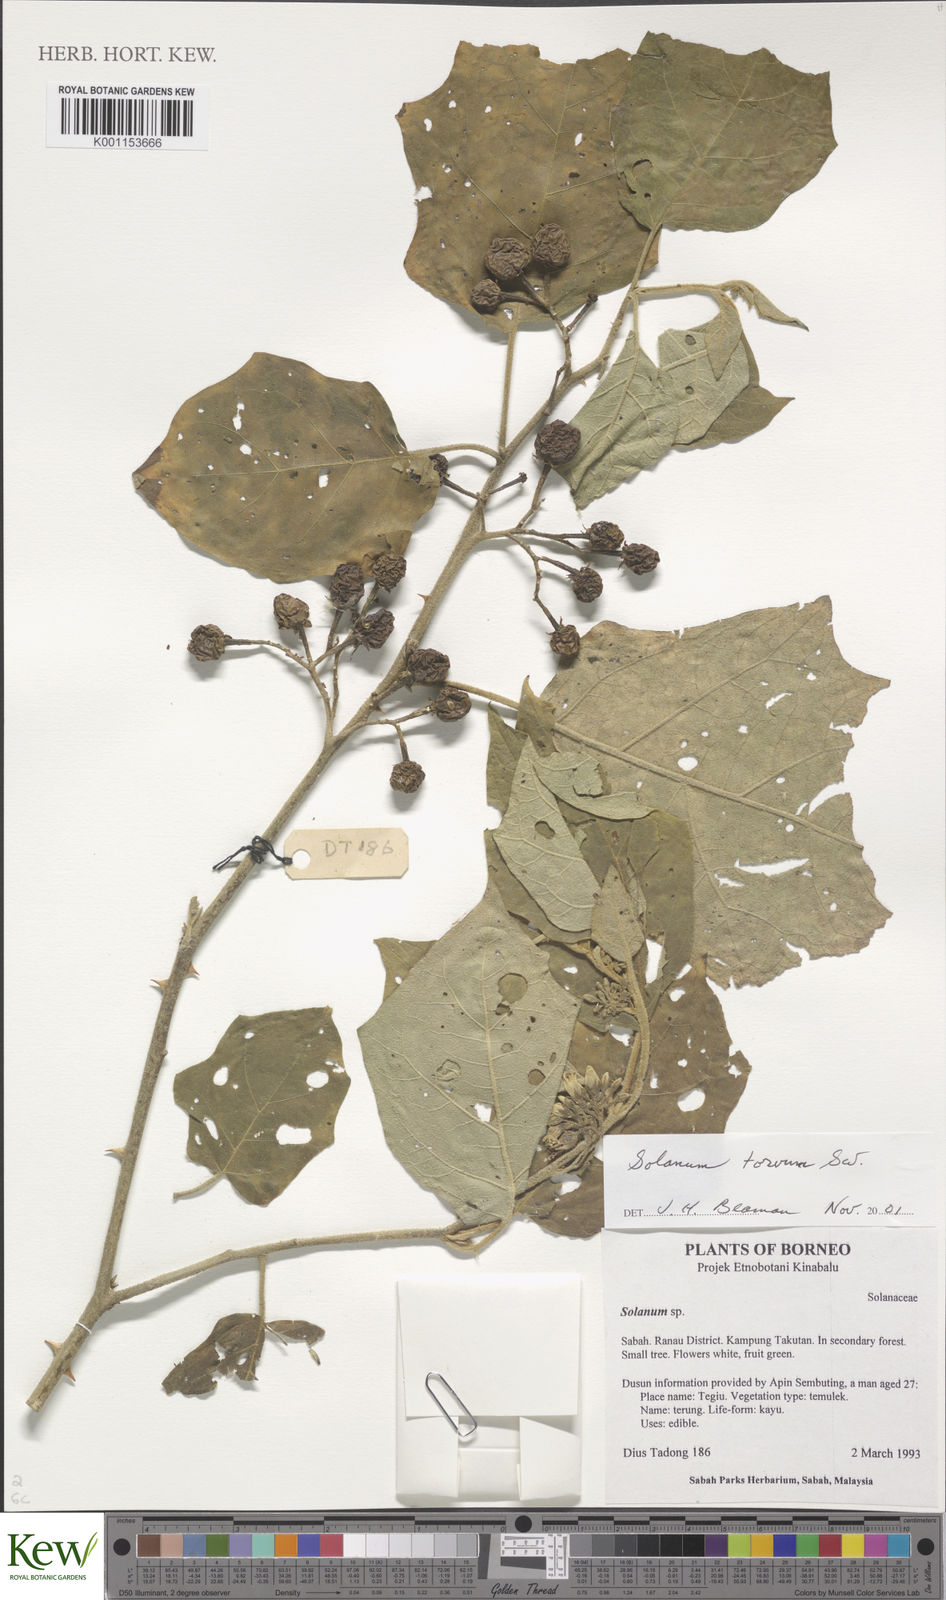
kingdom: Plantae
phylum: Tracheophyta
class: Magnoliopsida
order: Solanales
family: Solanaceae
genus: Solanum
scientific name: Solanum torvum
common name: Turkey berry
